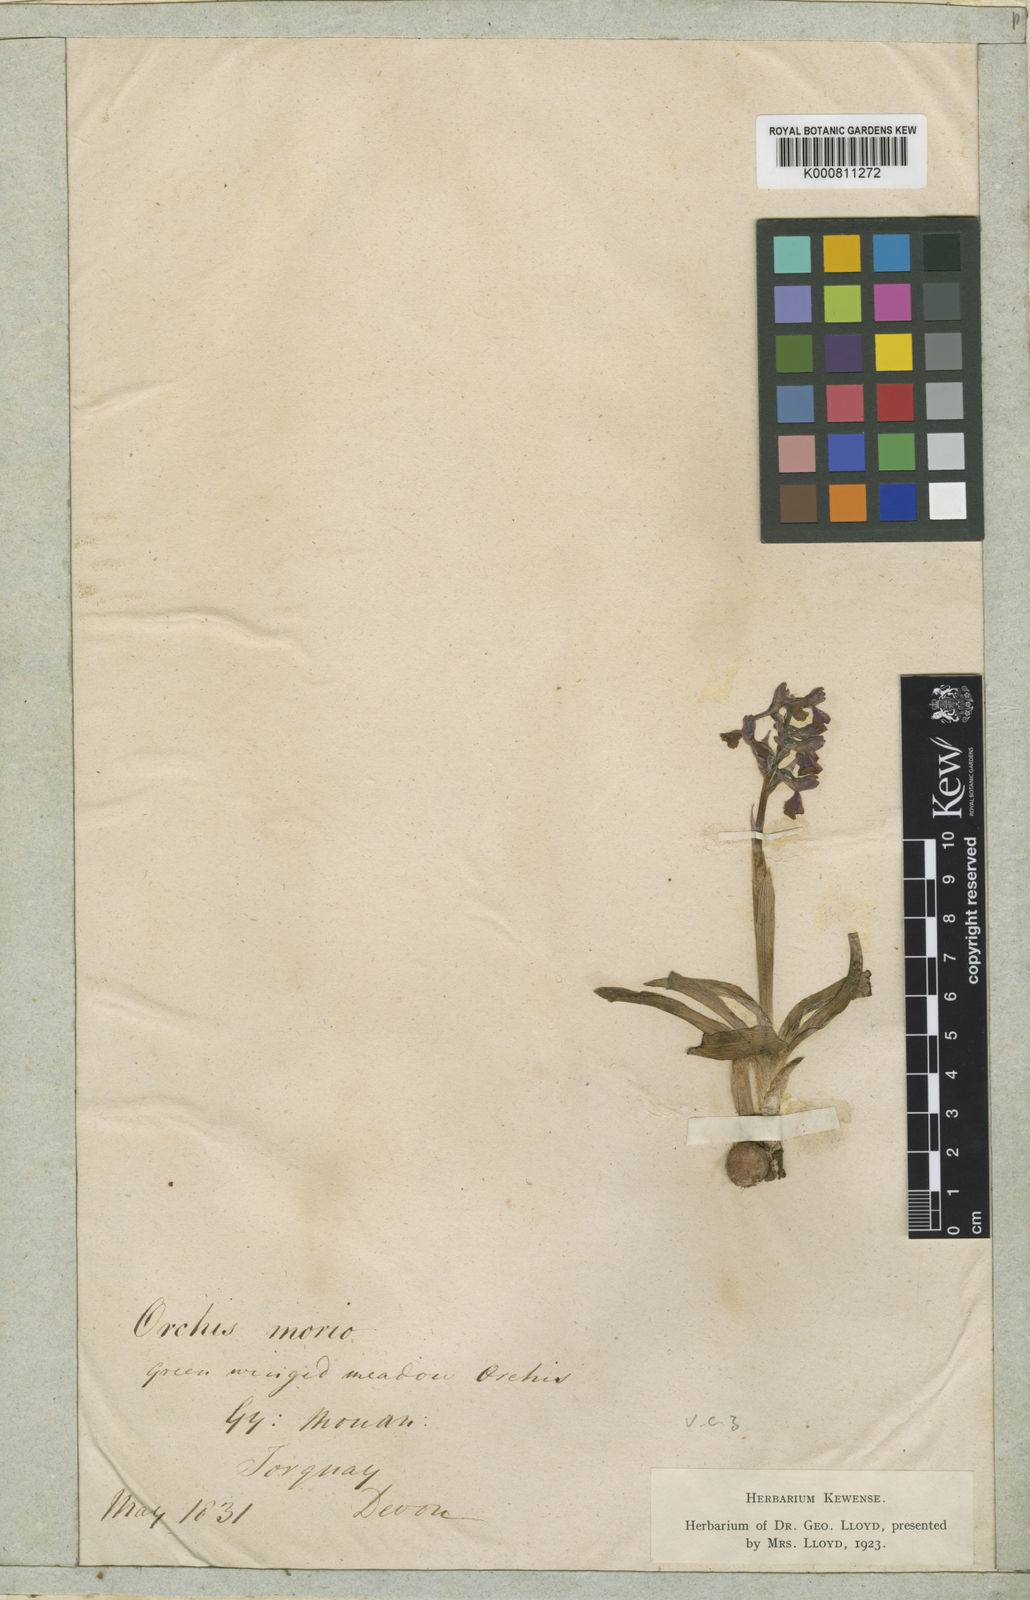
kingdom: Plantae
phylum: Tracheophyta
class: Liliopsida
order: Asparagales
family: Orchidaceae
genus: Anacamptis
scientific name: Anacamptis morio
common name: Green-winged orchid
